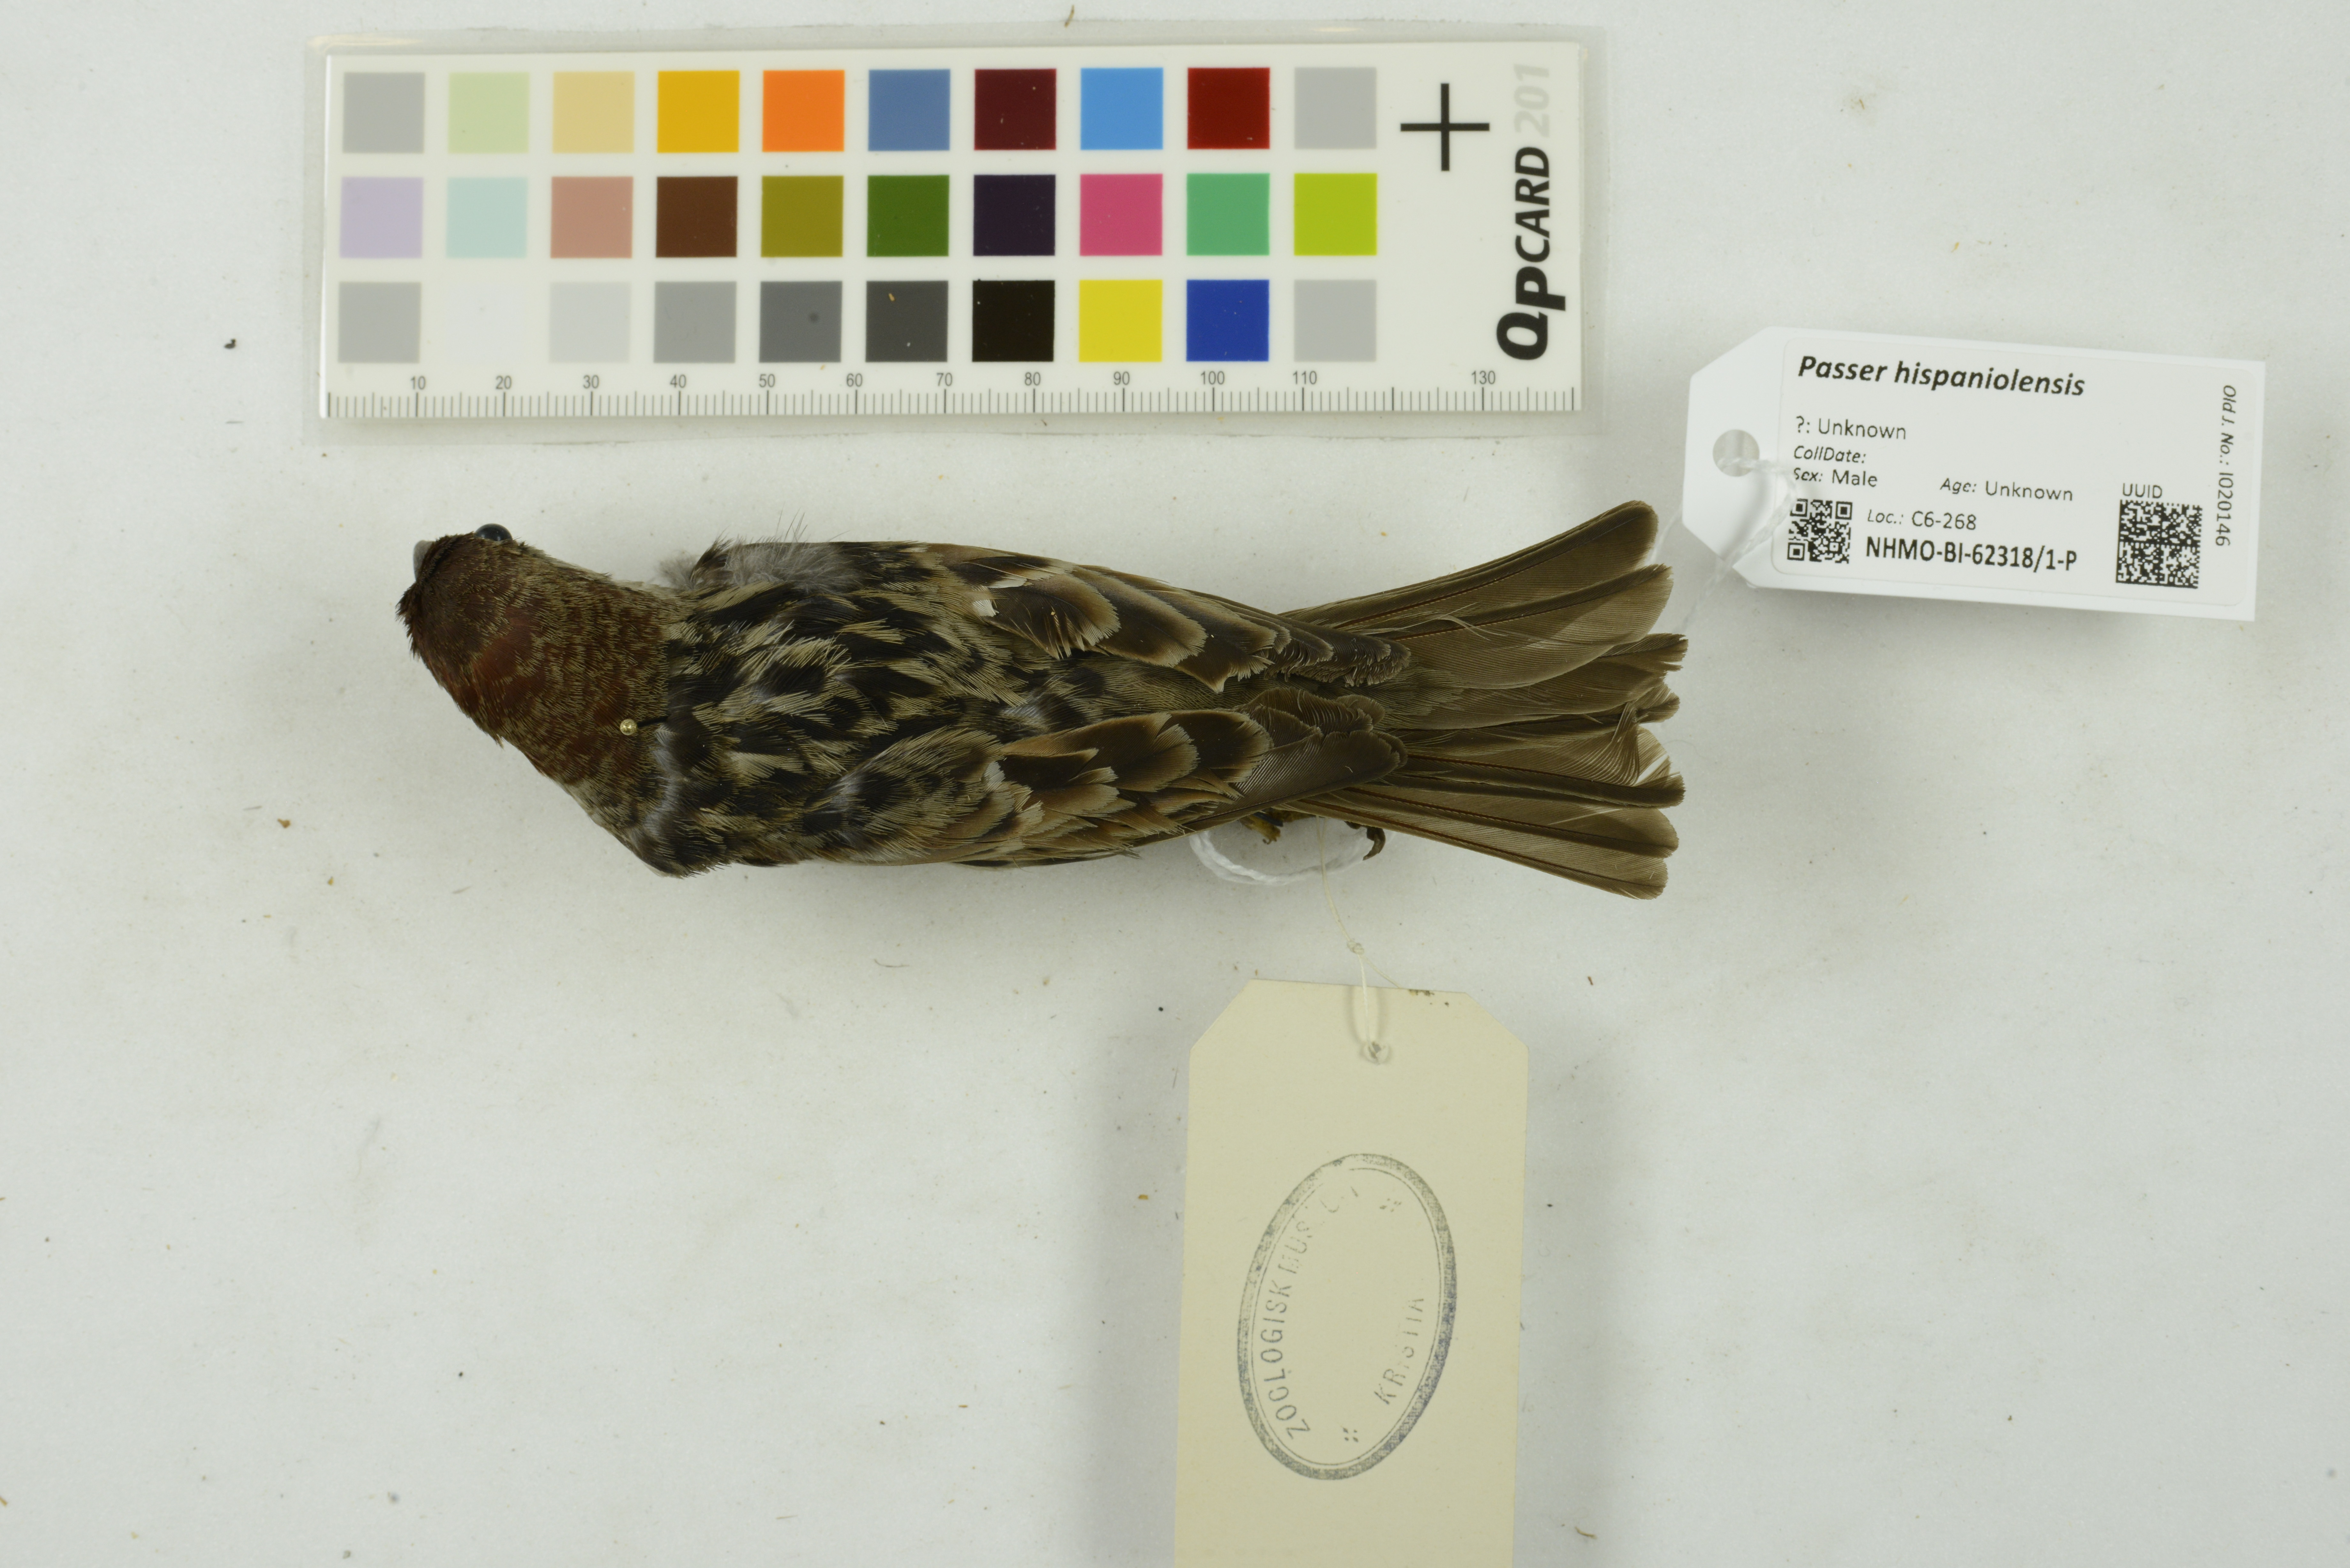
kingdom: Animalia
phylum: Chordata
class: Aves
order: Passeriformes
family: Passeridae
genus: Passer
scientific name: Passer hispaniolensis
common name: Spanish sparrow
